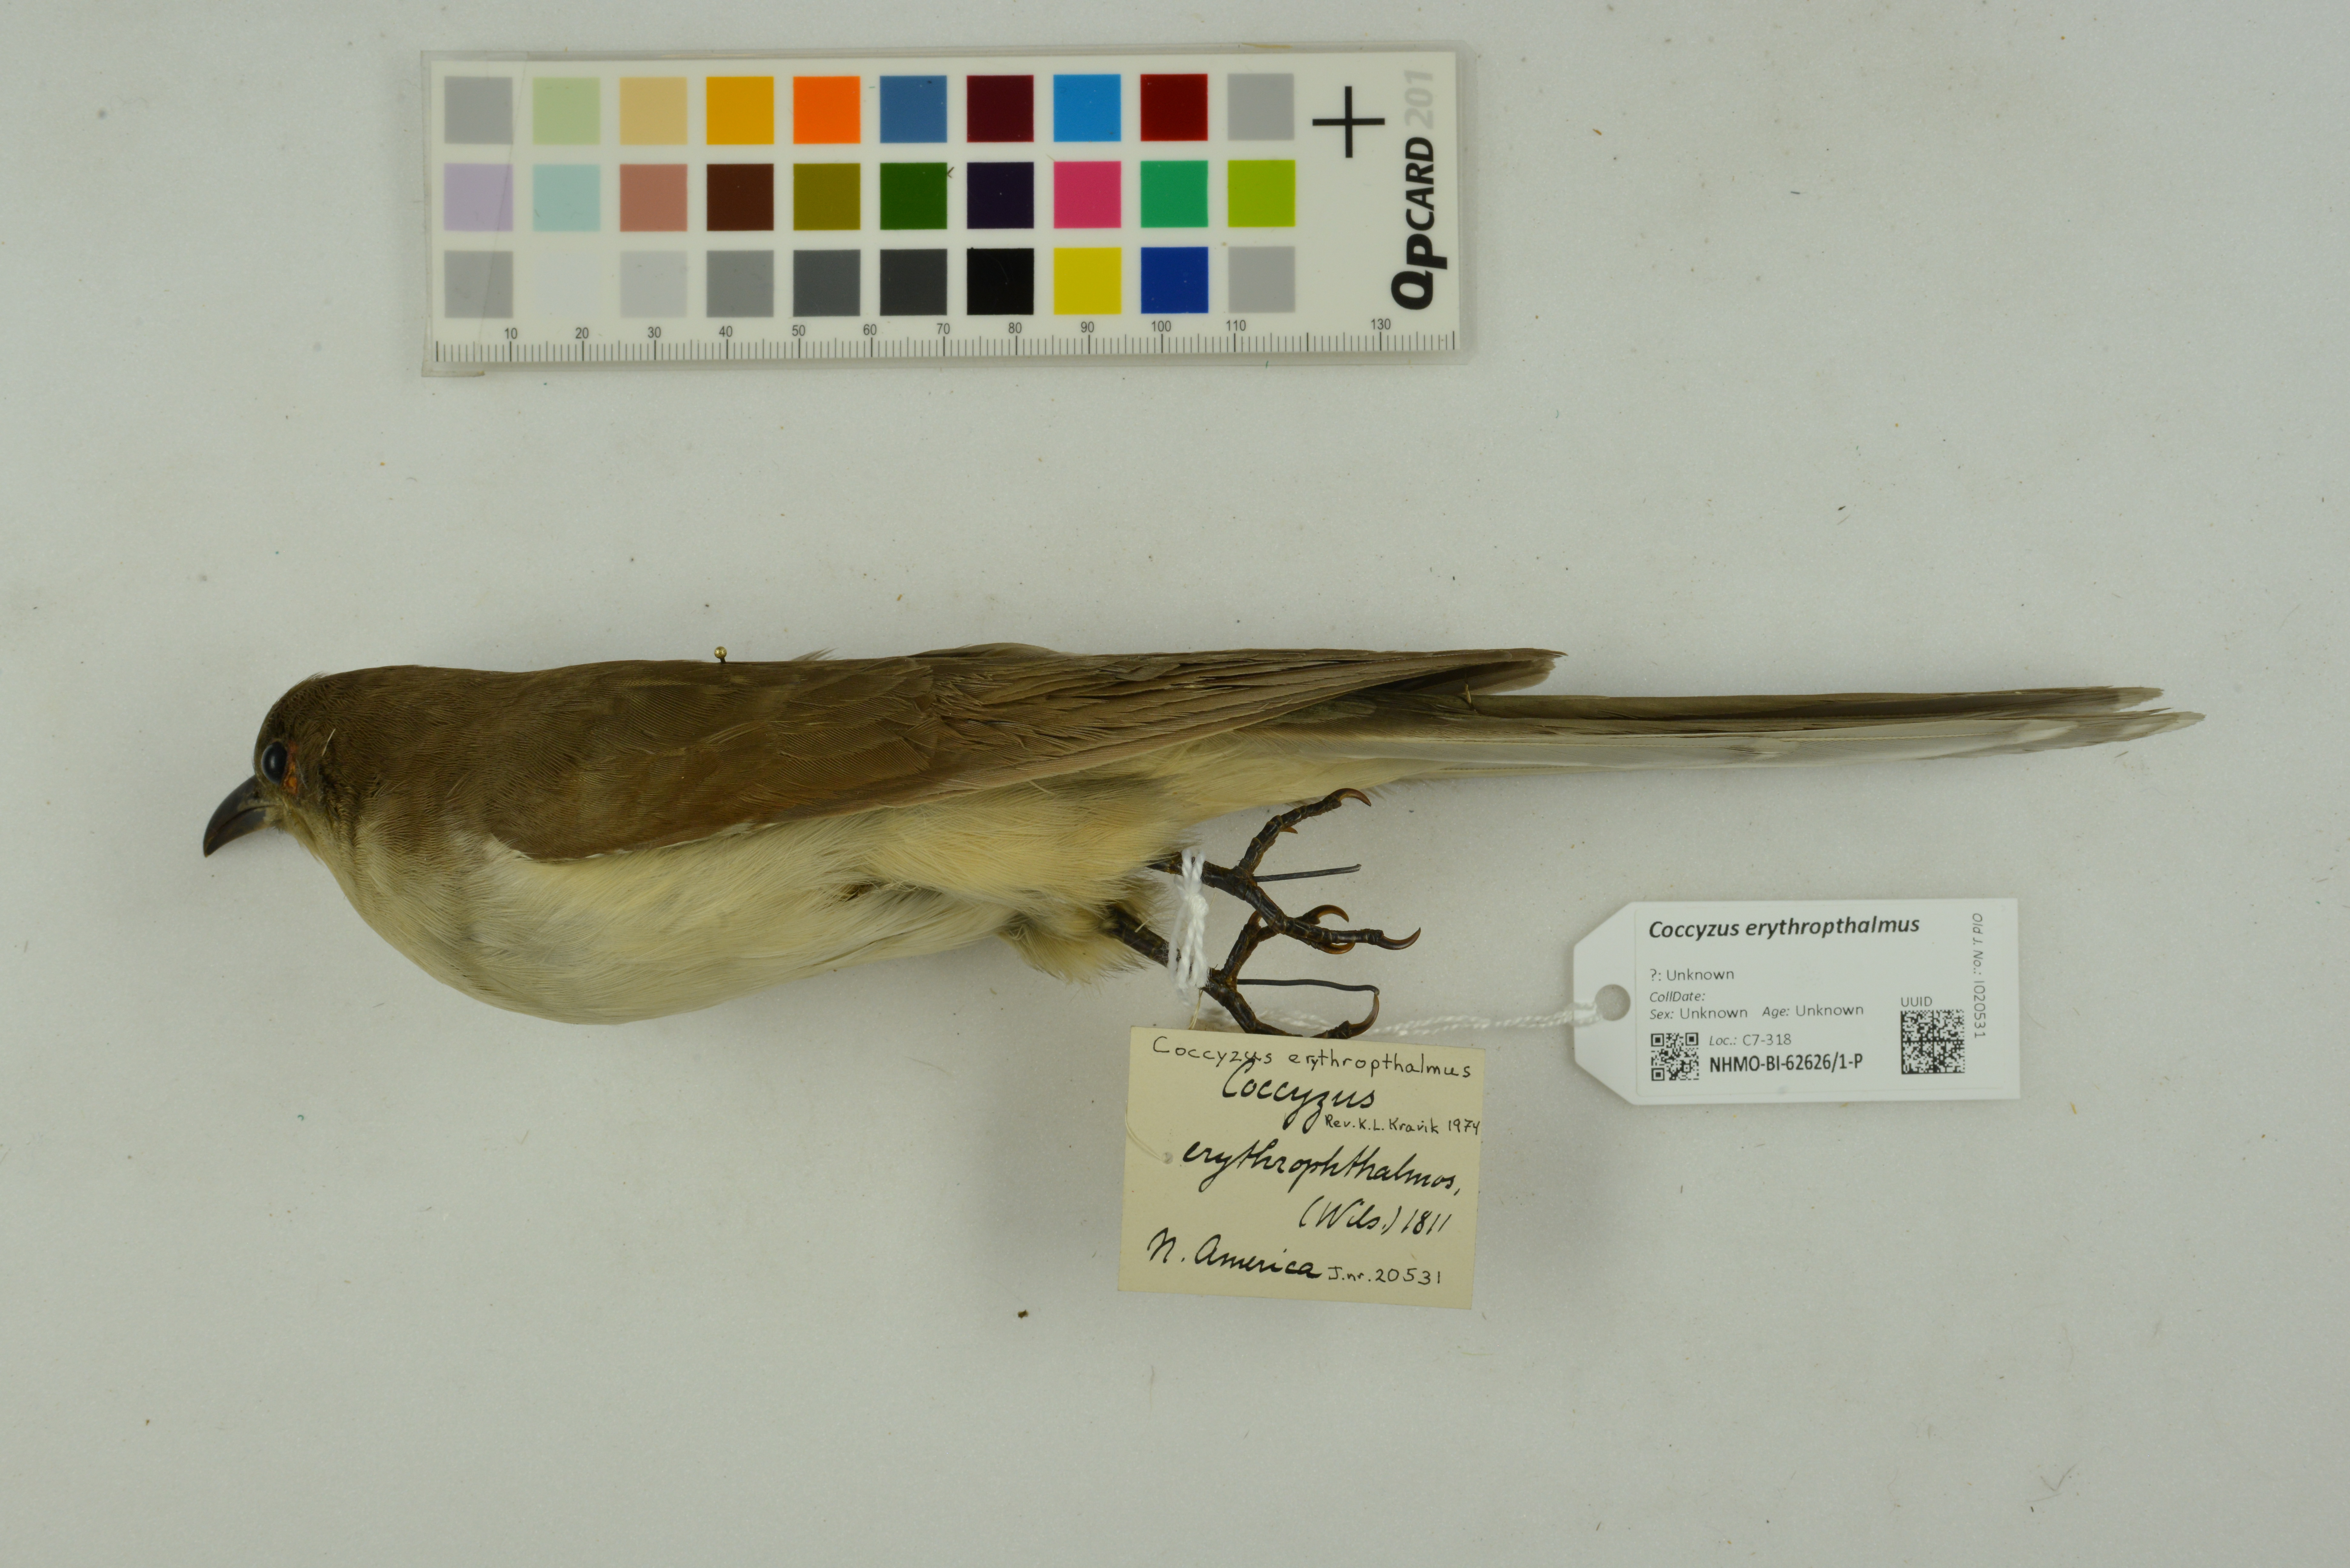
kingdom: Animalia
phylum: Chordata
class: Aves
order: Cuculiformes
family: Cuculidae
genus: Coccyzus
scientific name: Coccyzus erythropthalmus
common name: Black-billed cuckoo
